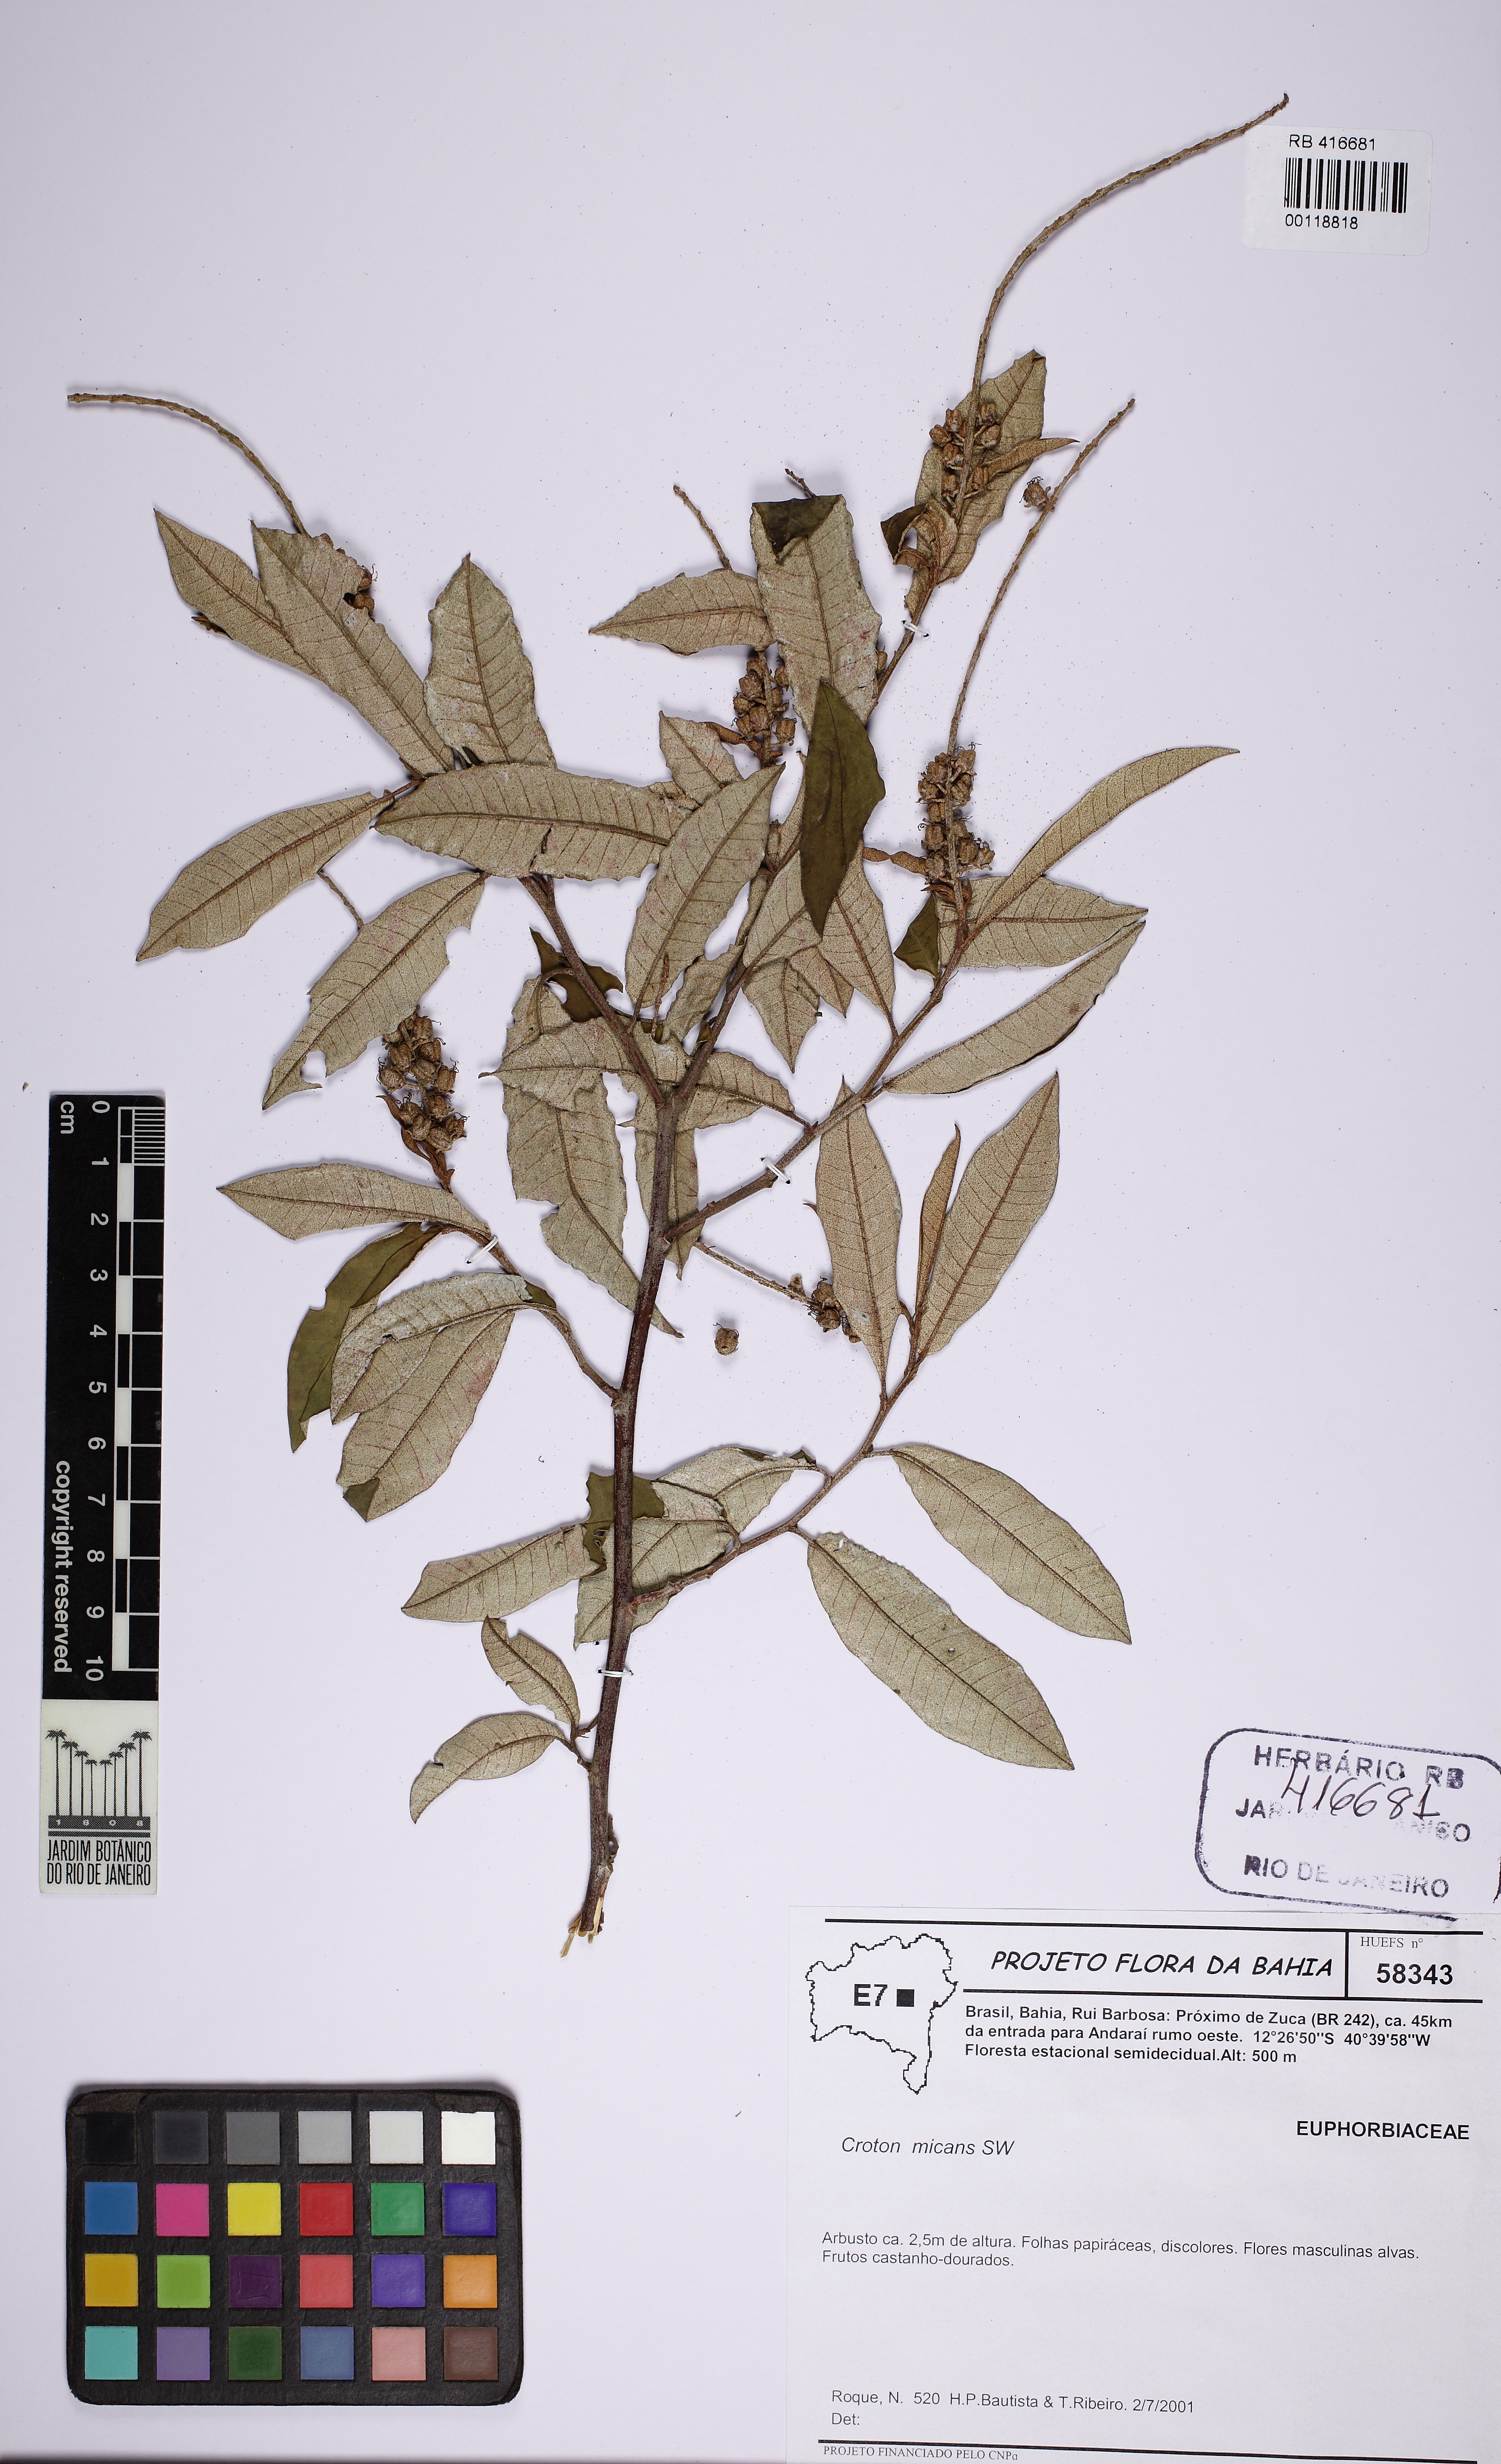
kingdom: Plantae
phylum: Tracheophyta
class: Magnoliopsida
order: Malpighiales
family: Euphorbiaceae
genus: Croton
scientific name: Croton micans
